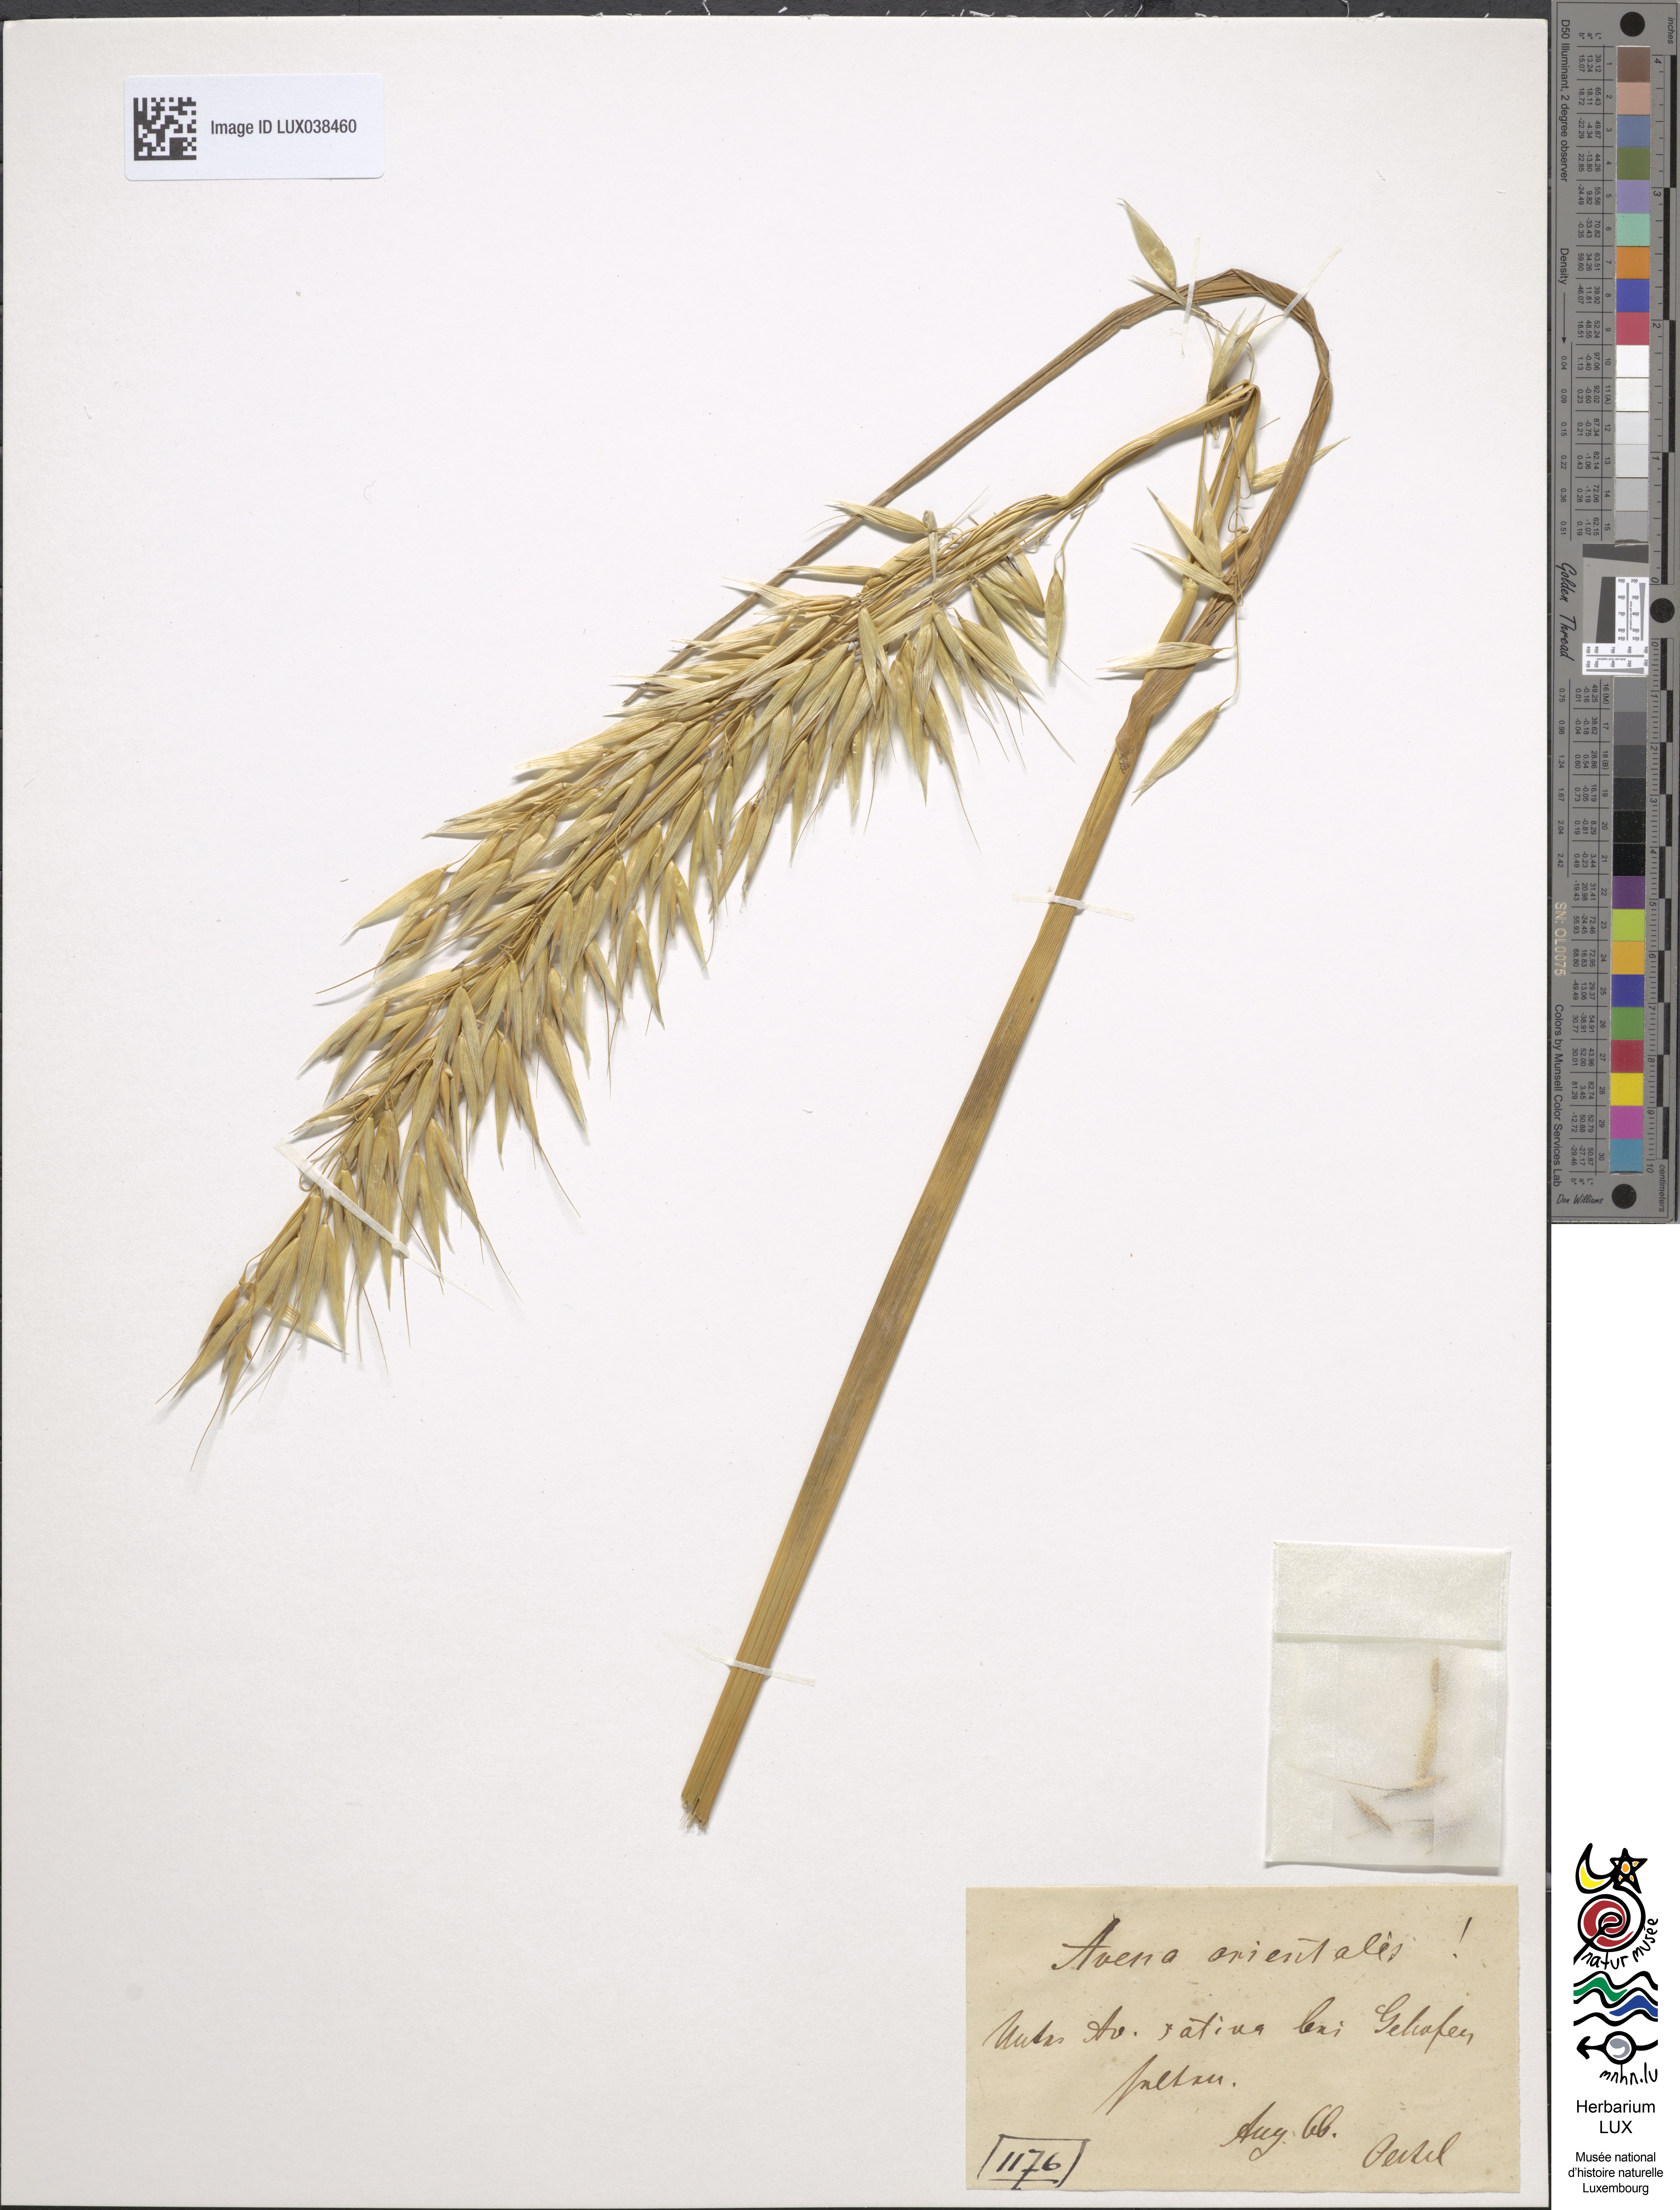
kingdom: Plantae
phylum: Tracheophyta
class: Liliopsida
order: Poales
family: Poaceae
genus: Avena
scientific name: Avena sativa
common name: Oat
